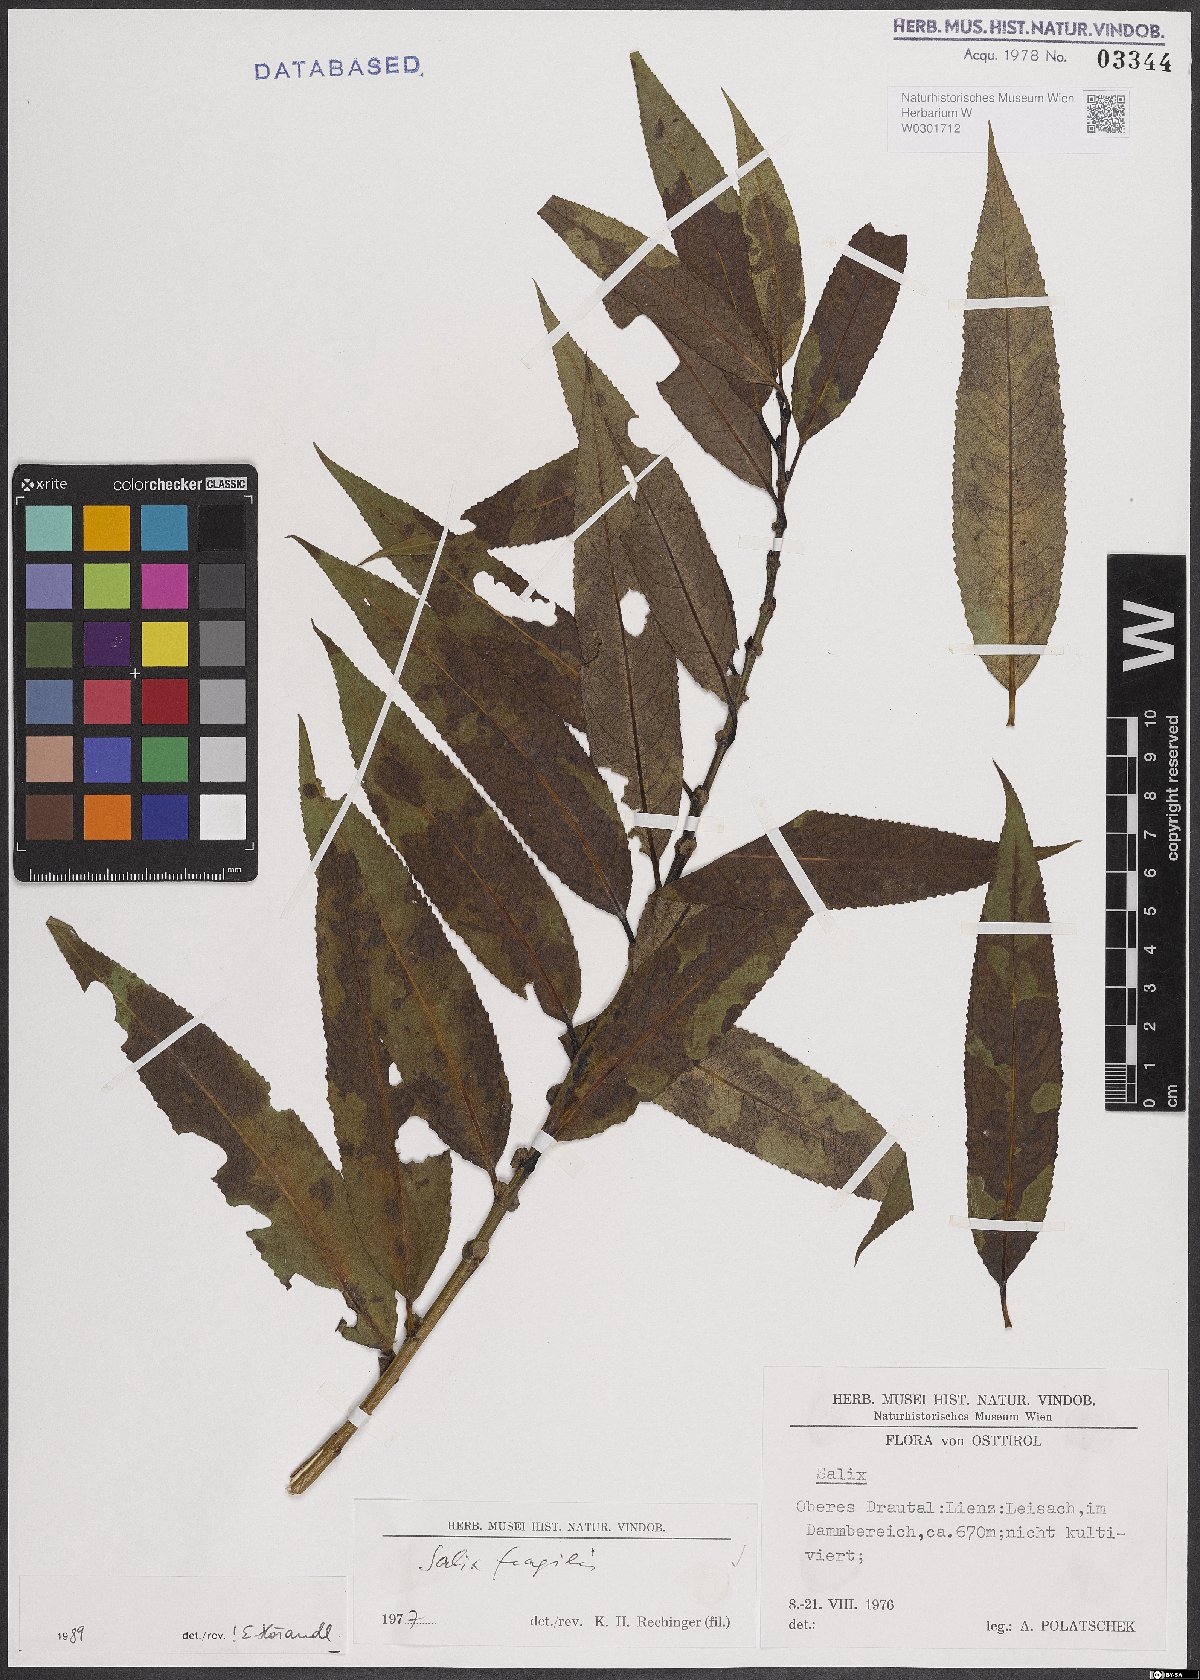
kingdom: Plantae
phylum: Tracheophyta
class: Magnoliopsida
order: Malpighiales
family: Salicaceae
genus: Salix
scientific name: Salix fragilis
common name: Crack willow
